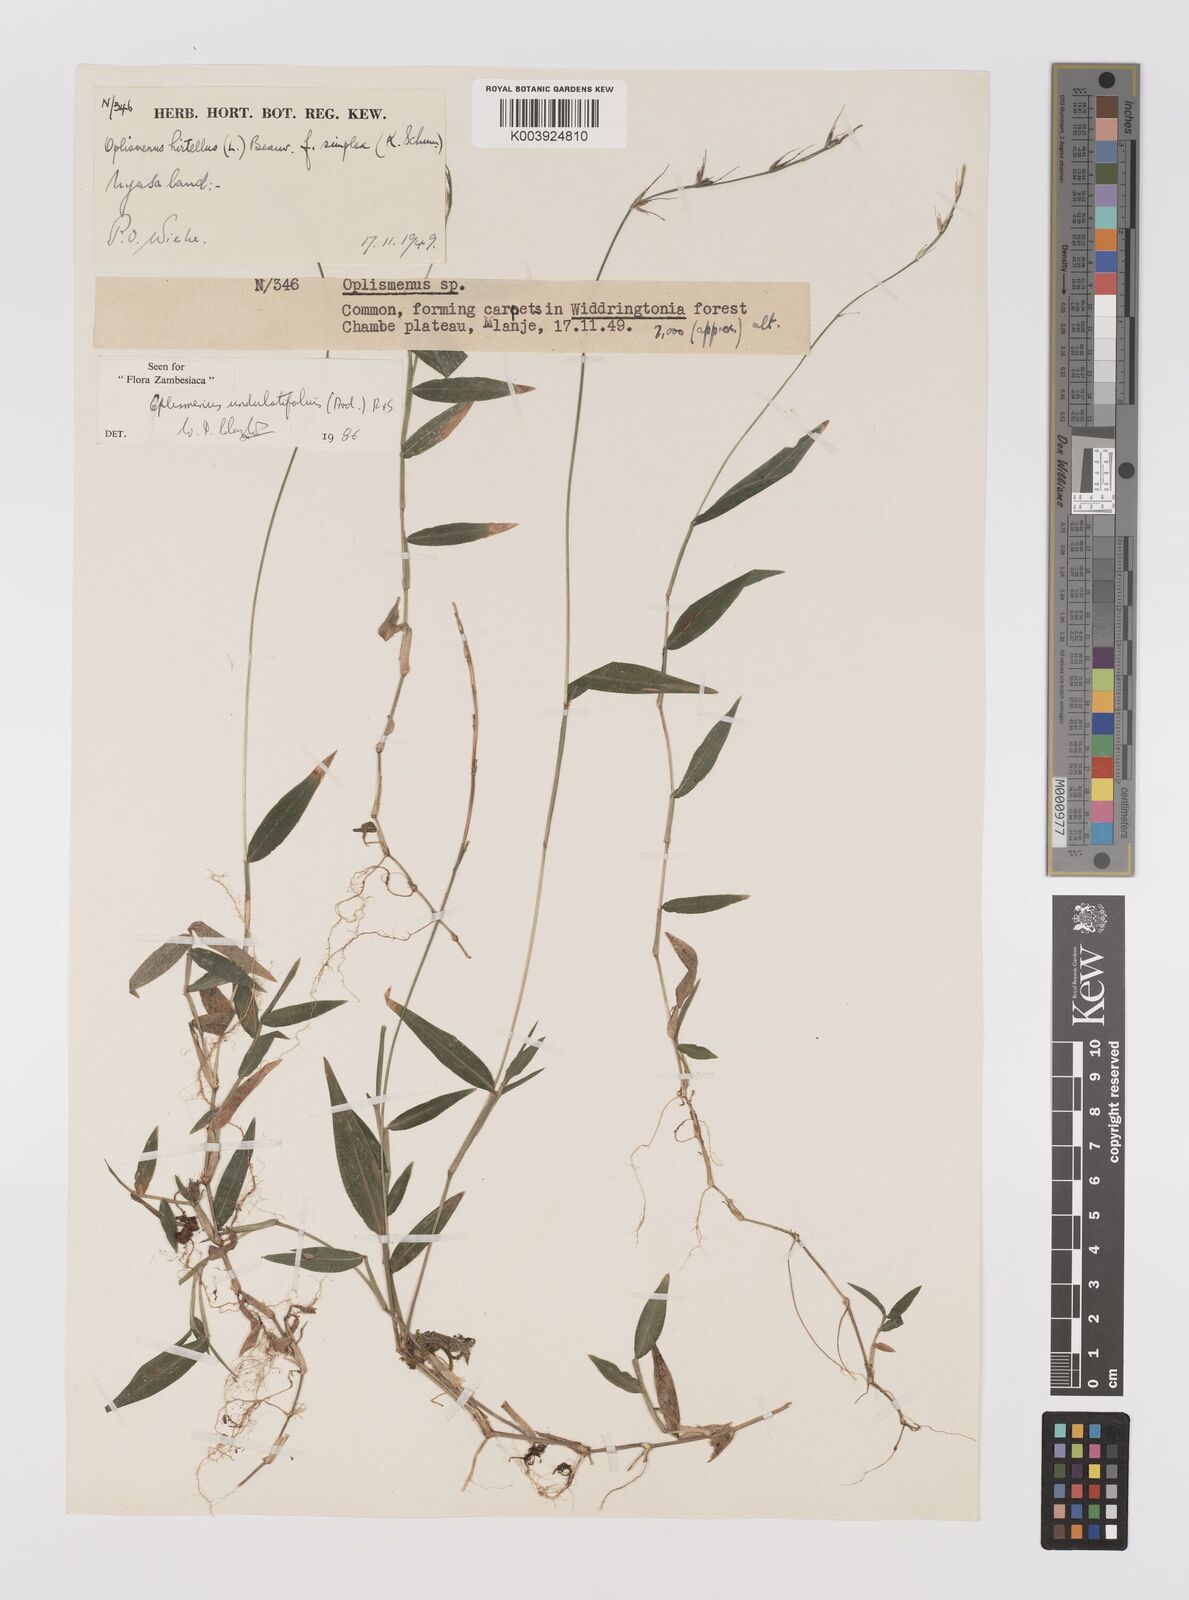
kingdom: Plantae
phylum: Tracheophyta
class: Liliopsida
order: Poales
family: Poaceae
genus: Oplismenus
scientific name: Oplismenus undulatifolius
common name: Wavyleaf basketgrass
